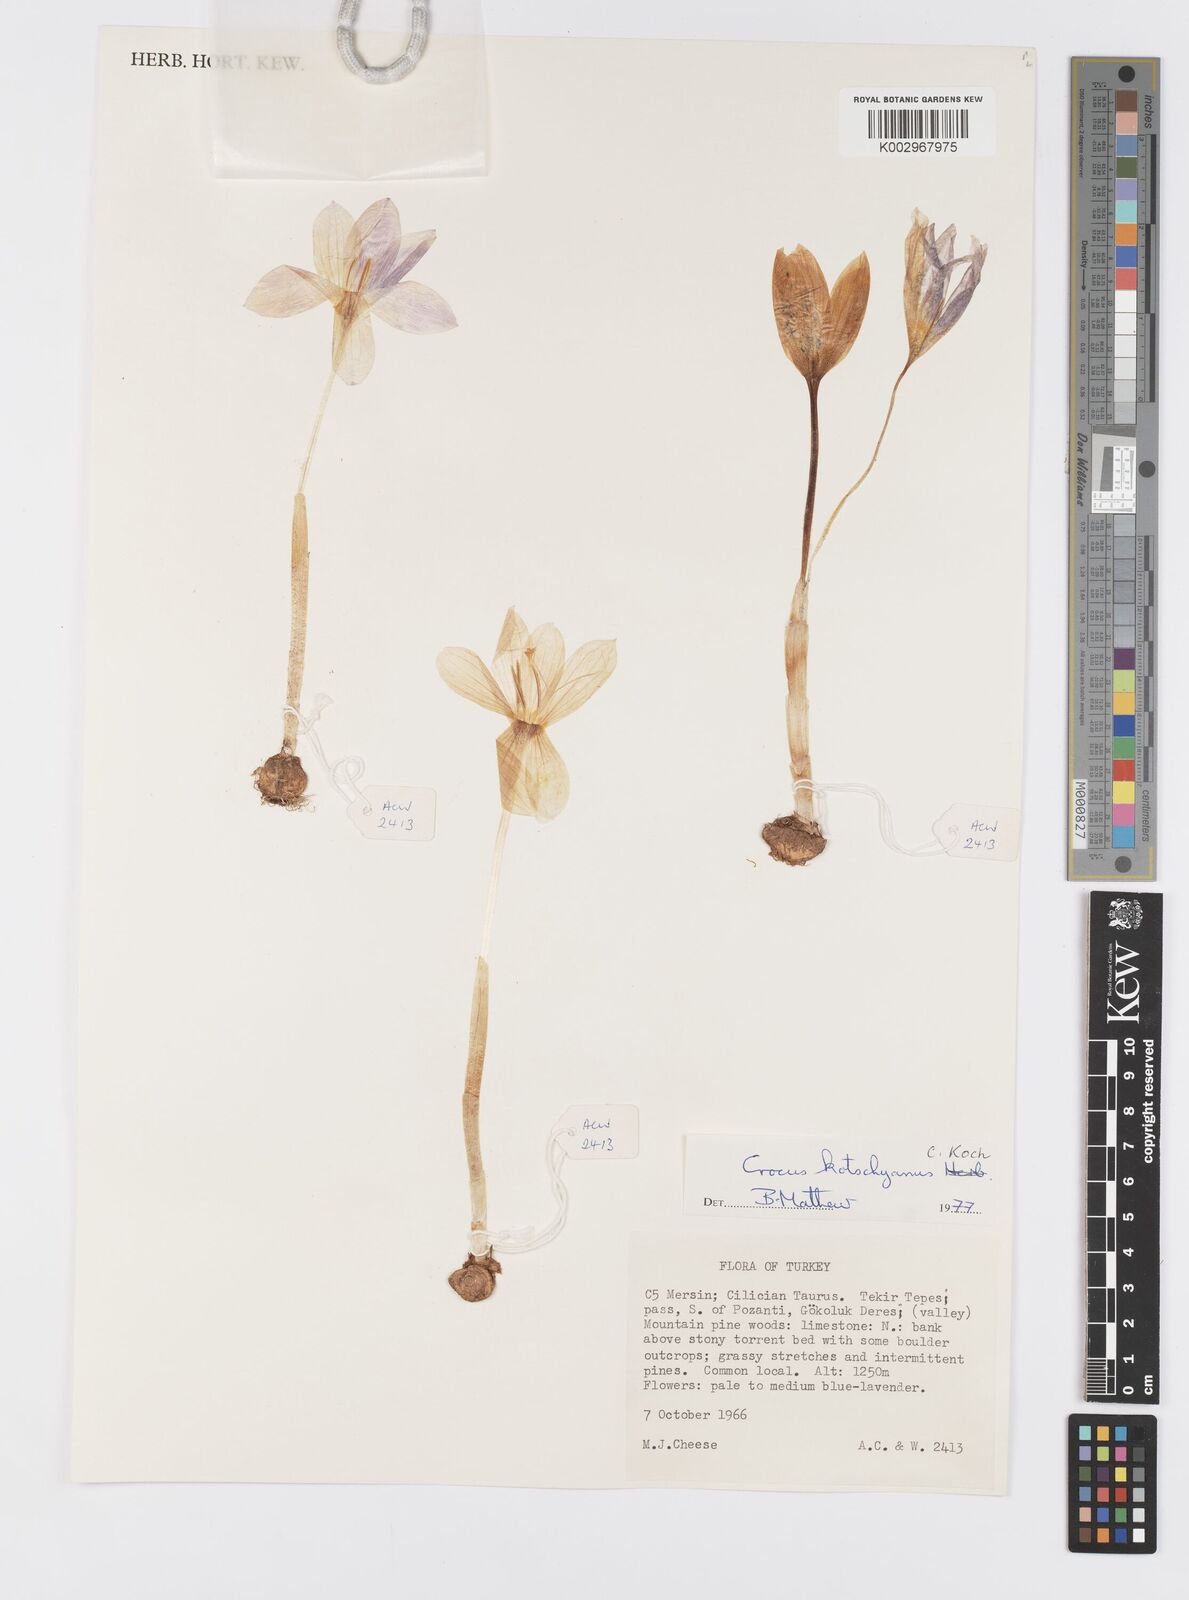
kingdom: Plantae
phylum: Tracheophyta
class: Liliopsida
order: Asparagales
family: Iridaceae
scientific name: Iridaceae
